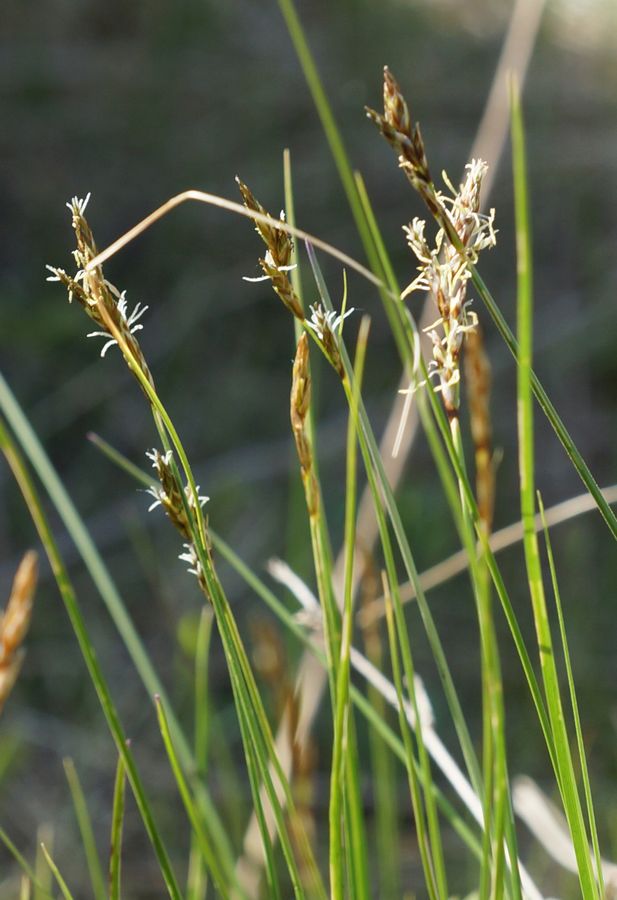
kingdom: Plantae
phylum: Tracheophyta
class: Liliopsida
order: Poales
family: Cyperaceae
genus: Carex
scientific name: Carex
